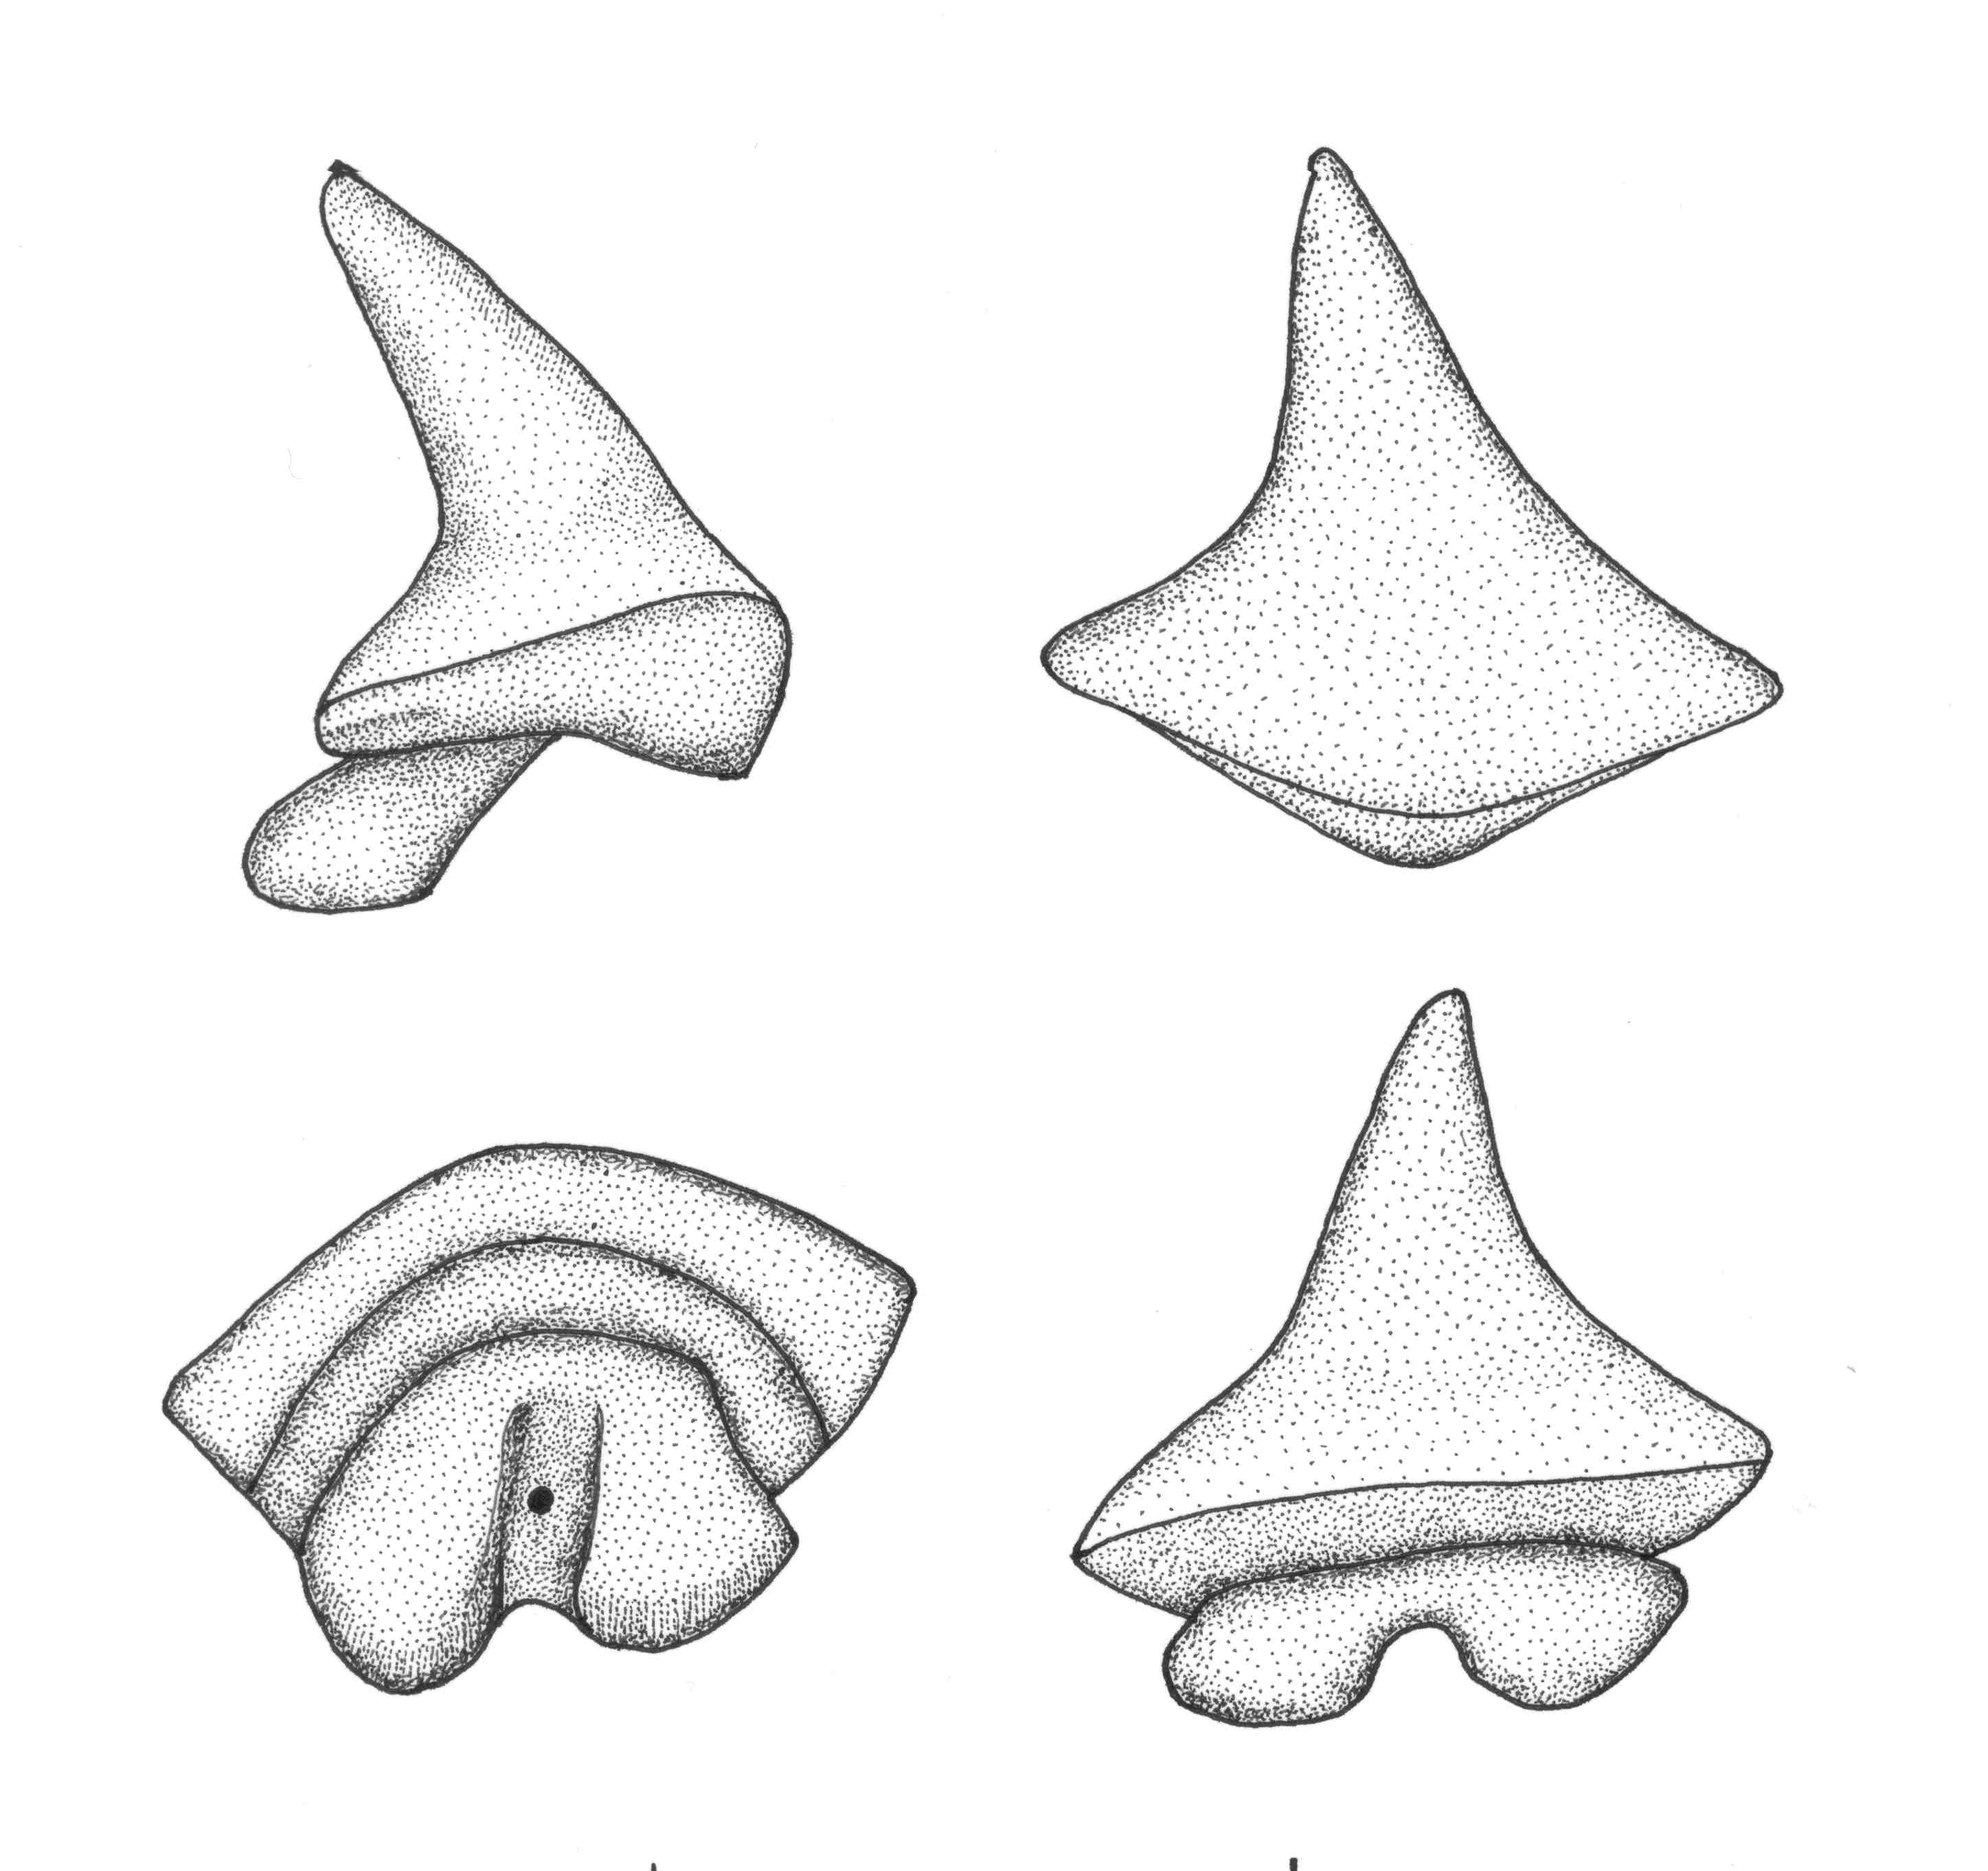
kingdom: Animalia
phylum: Chordata
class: Elasmobranchii
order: Torpediniformes
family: Narkidae
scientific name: Narkidae
